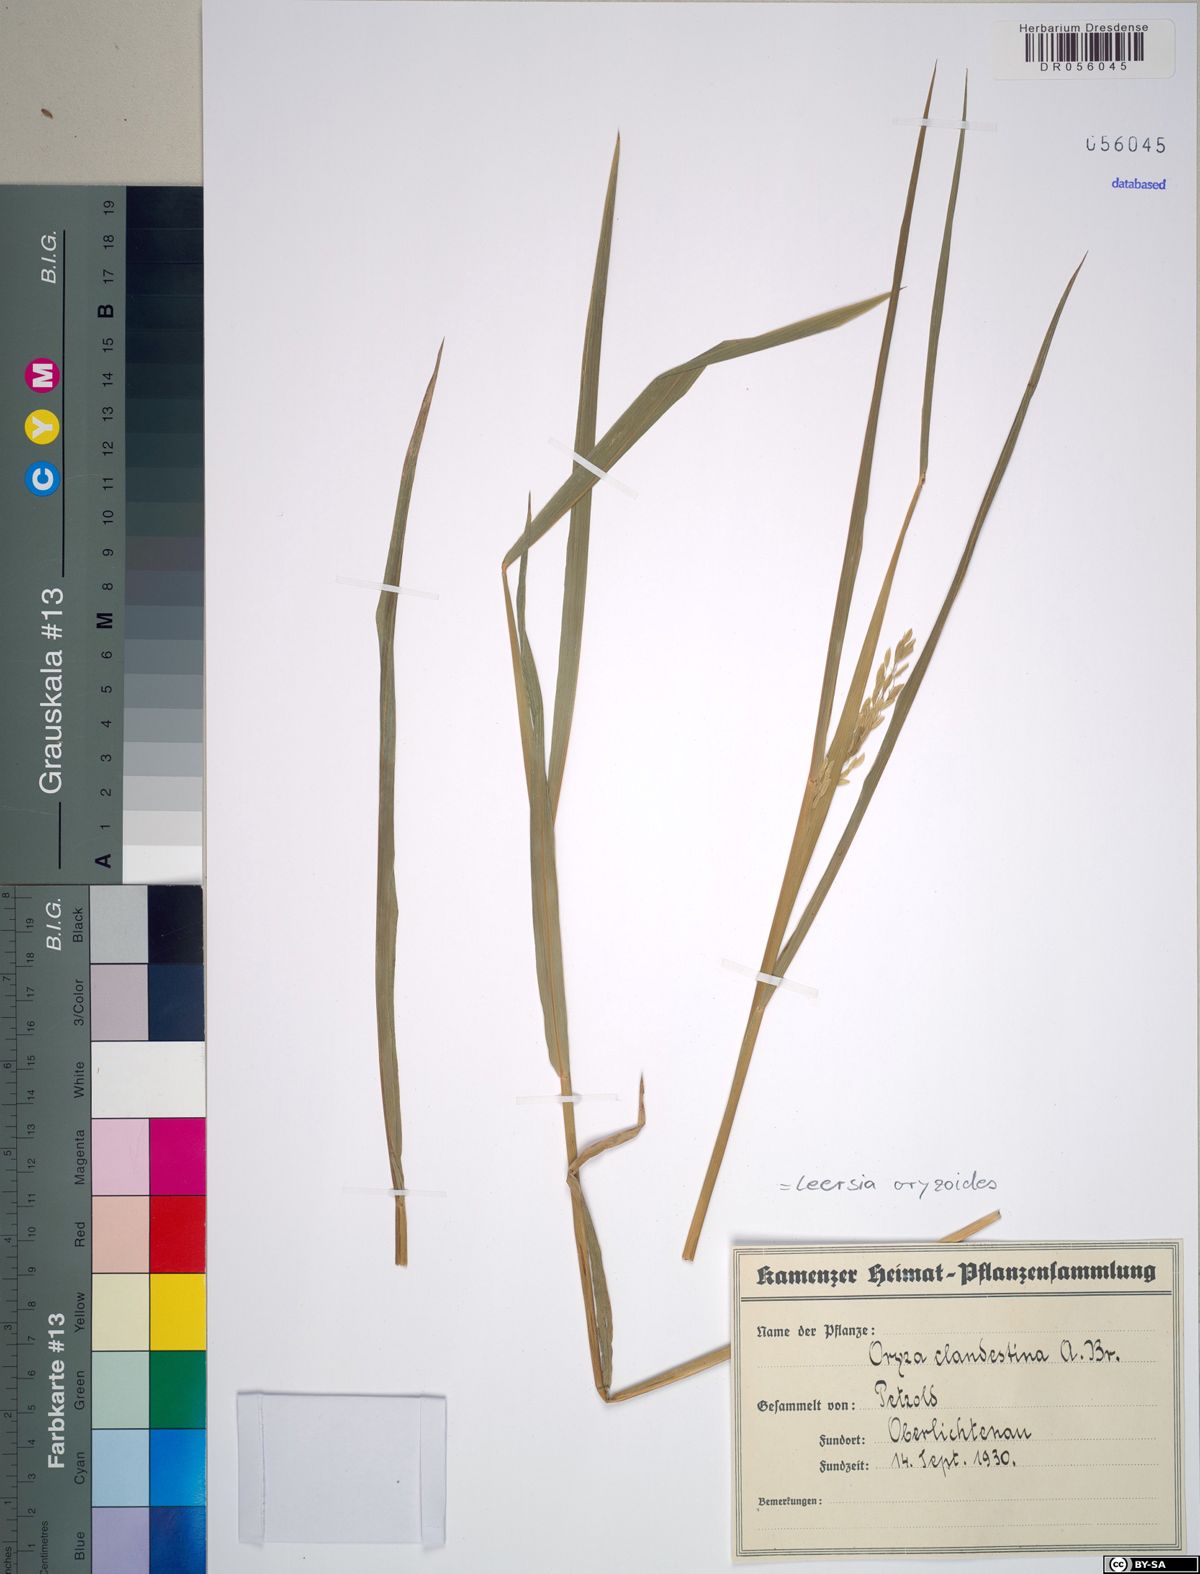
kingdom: Plantae
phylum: Tracheophyta
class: Liliopsida
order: Poales
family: Poaceae
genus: Leersia
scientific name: Leersia oryzoides
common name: Cut-grass
